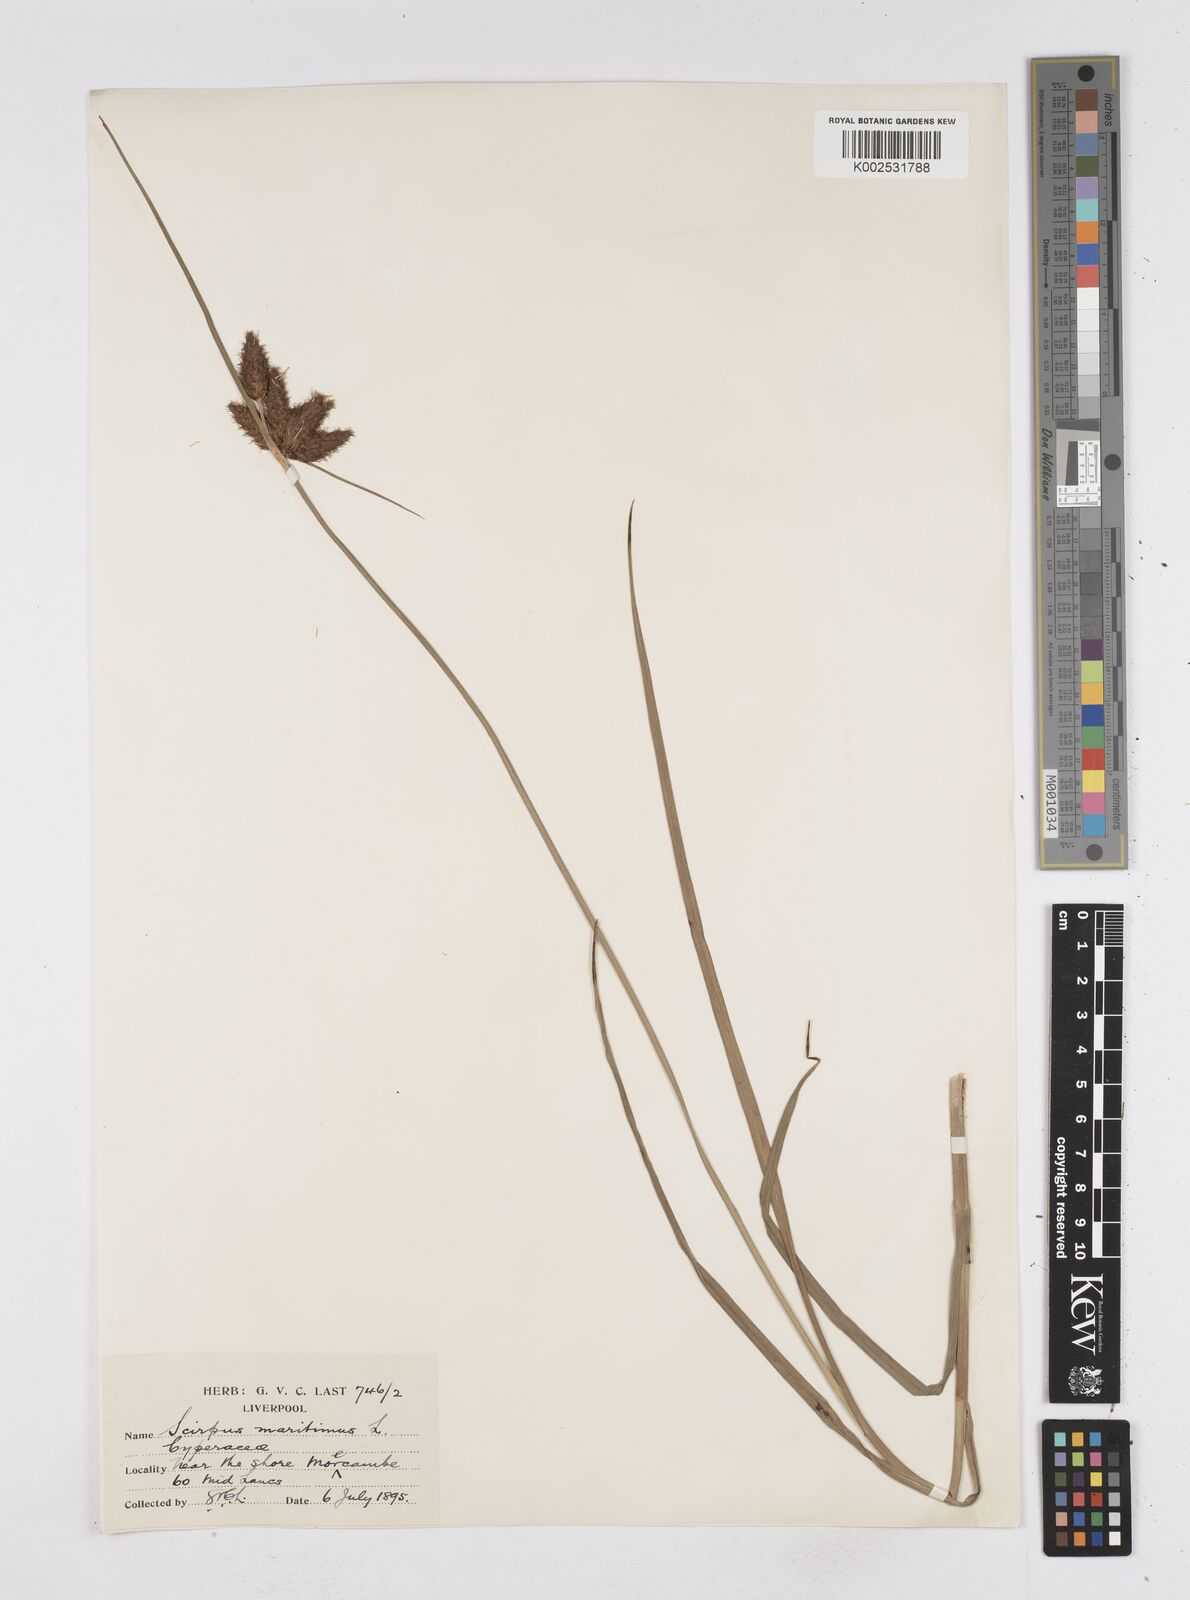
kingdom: Plantae
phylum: Tracheophyta
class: Liliopsida
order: Poales
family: Cyperaceae
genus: Bolboschoenus
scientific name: Bolboschoenus maritimus
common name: Sea club-rush
